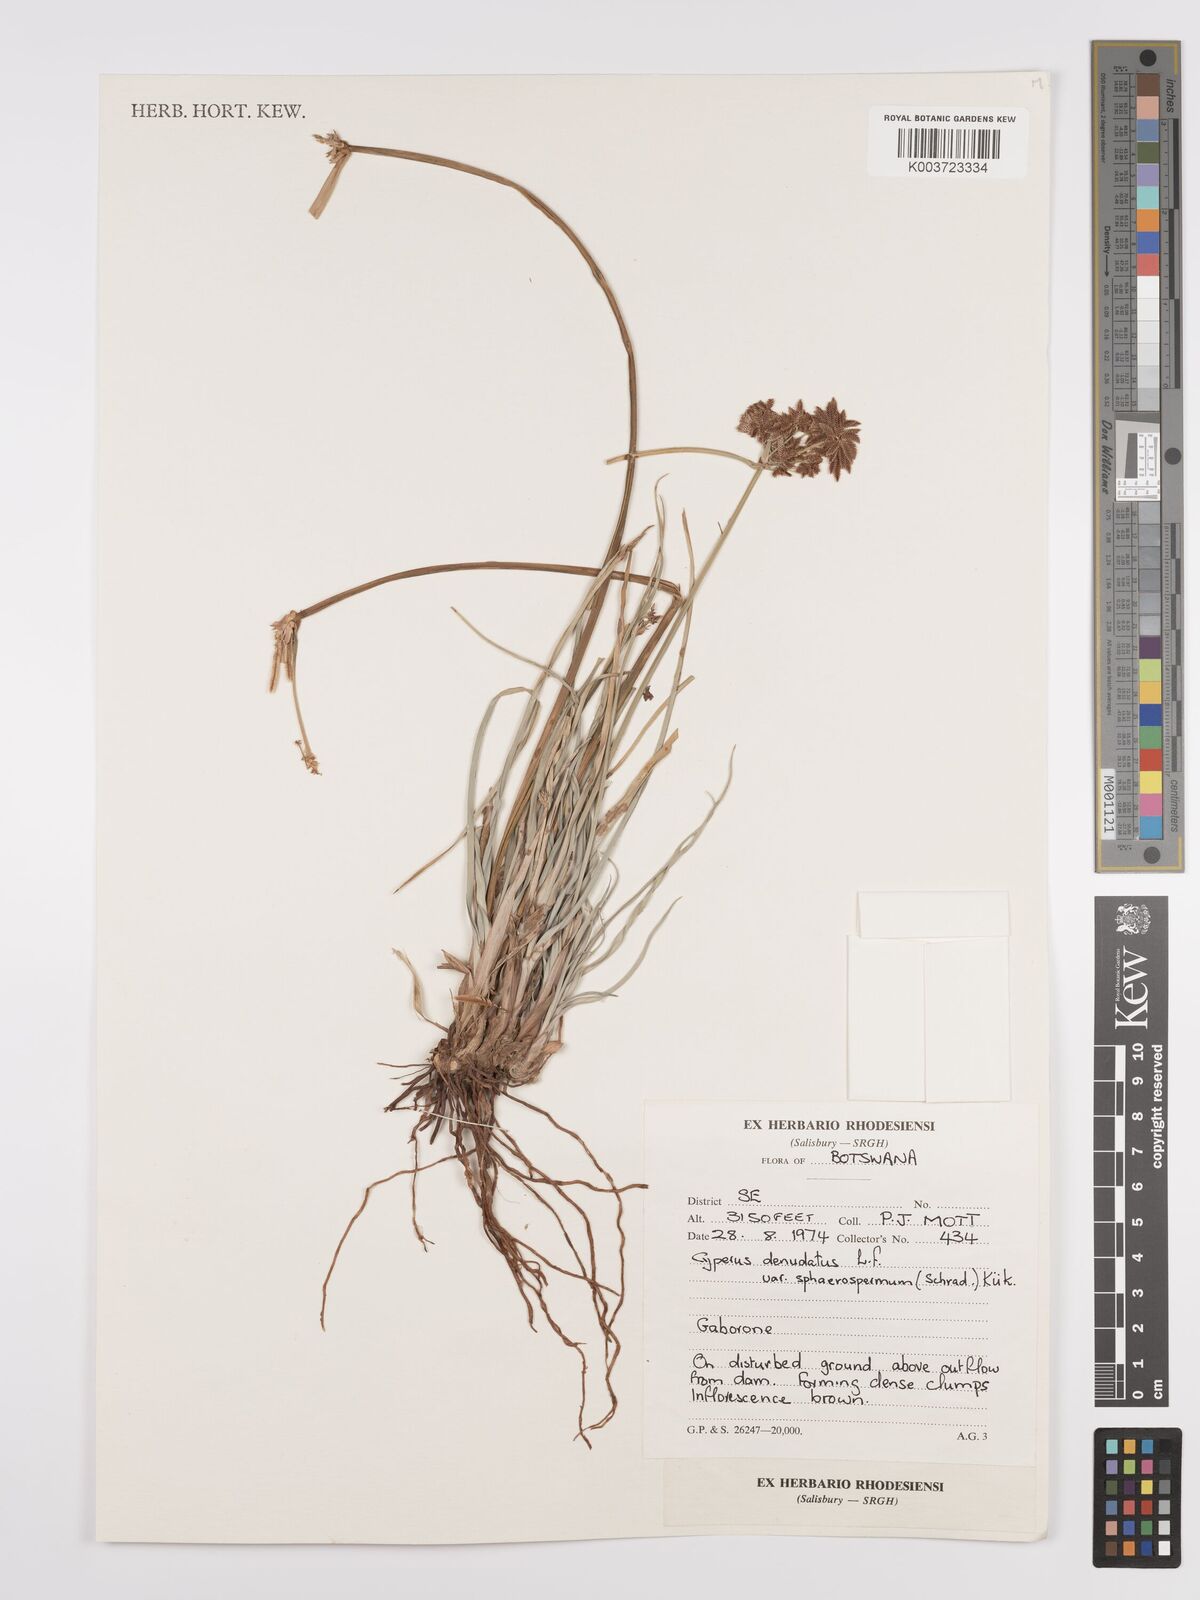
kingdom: Plantae
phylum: Tracheophyta
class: Liliopsida
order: Poales
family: Cyperaceae
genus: Cyperus
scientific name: Cyperus denudatus
